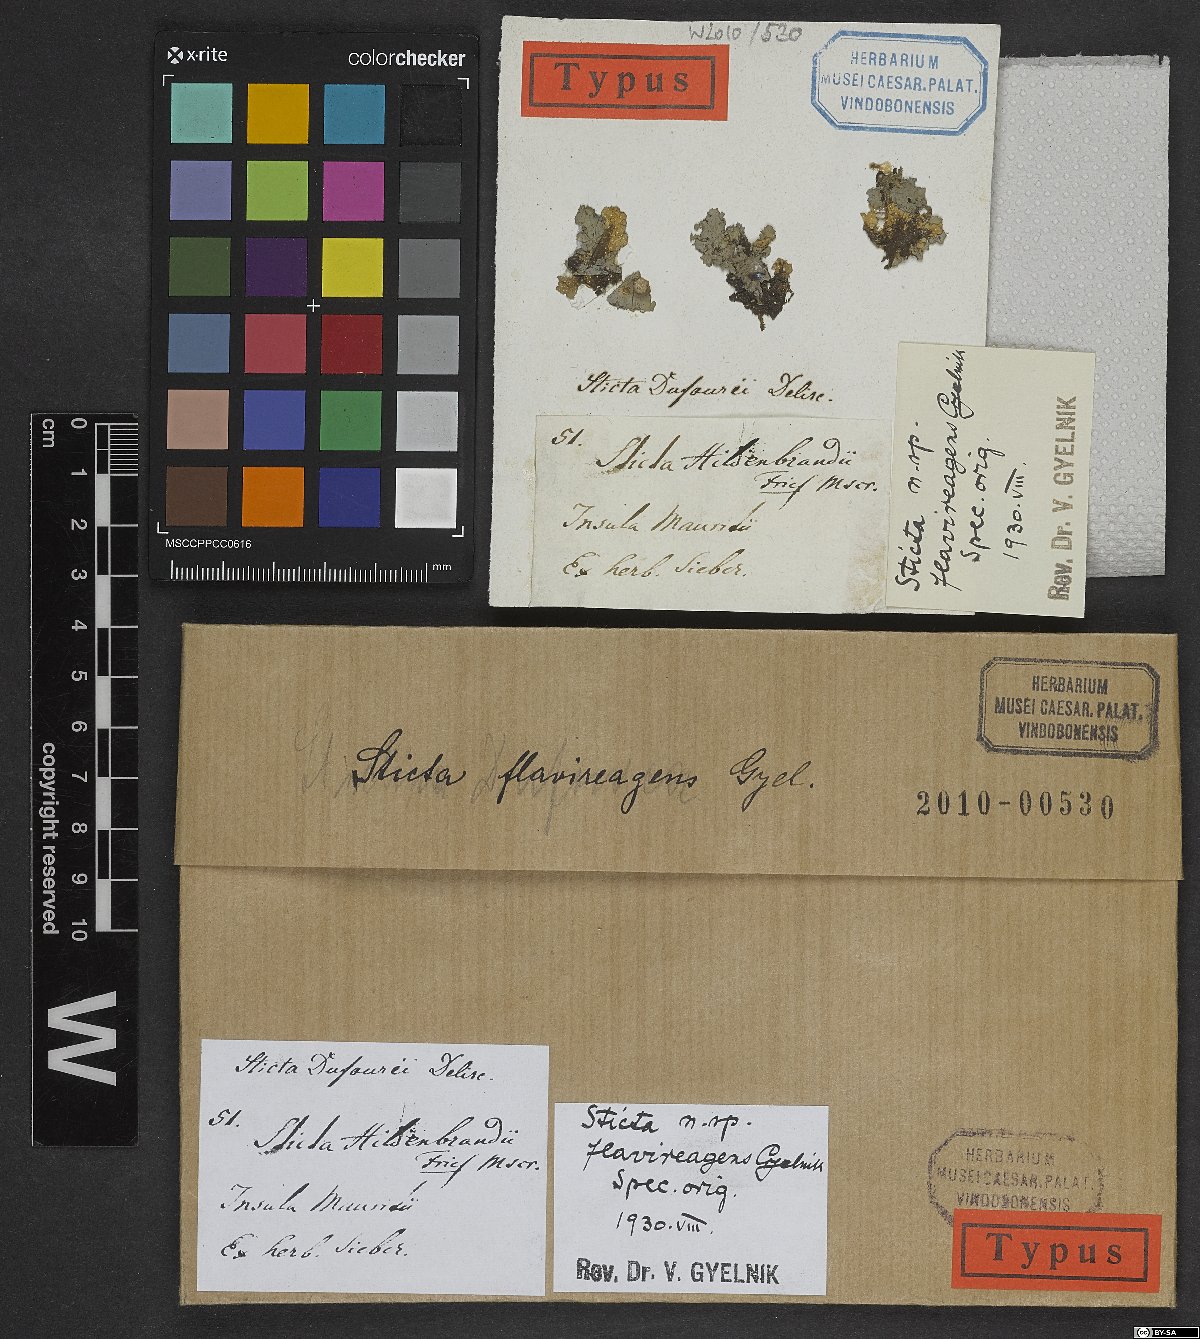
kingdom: Fungi
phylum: Ascomycota
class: Lecanoromycetes
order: Peltigerales
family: Lobariaceae
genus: Sticta
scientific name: Sticta flavireagens
